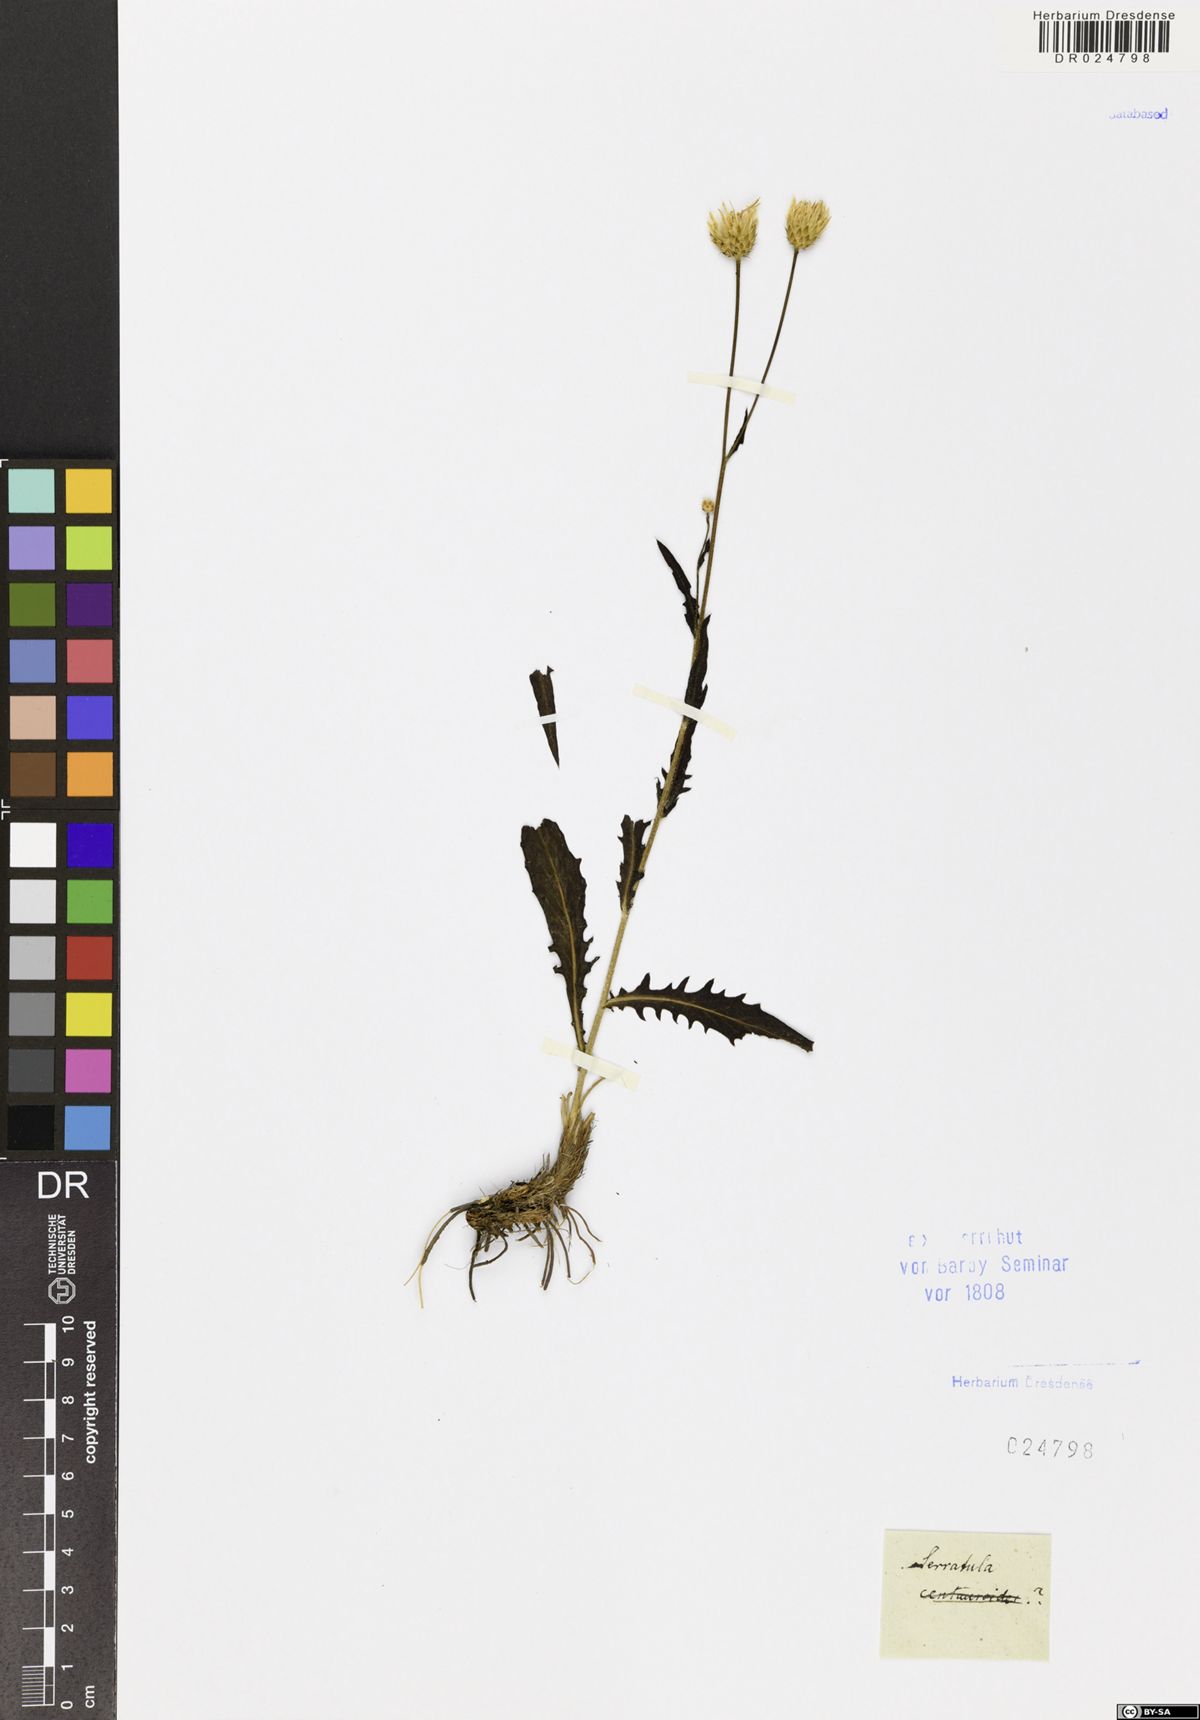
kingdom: Plantae
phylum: Tracheophyta
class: Magnoliopsida
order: Asterales
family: Asteraceae
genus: Serratula
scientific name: Serratula
